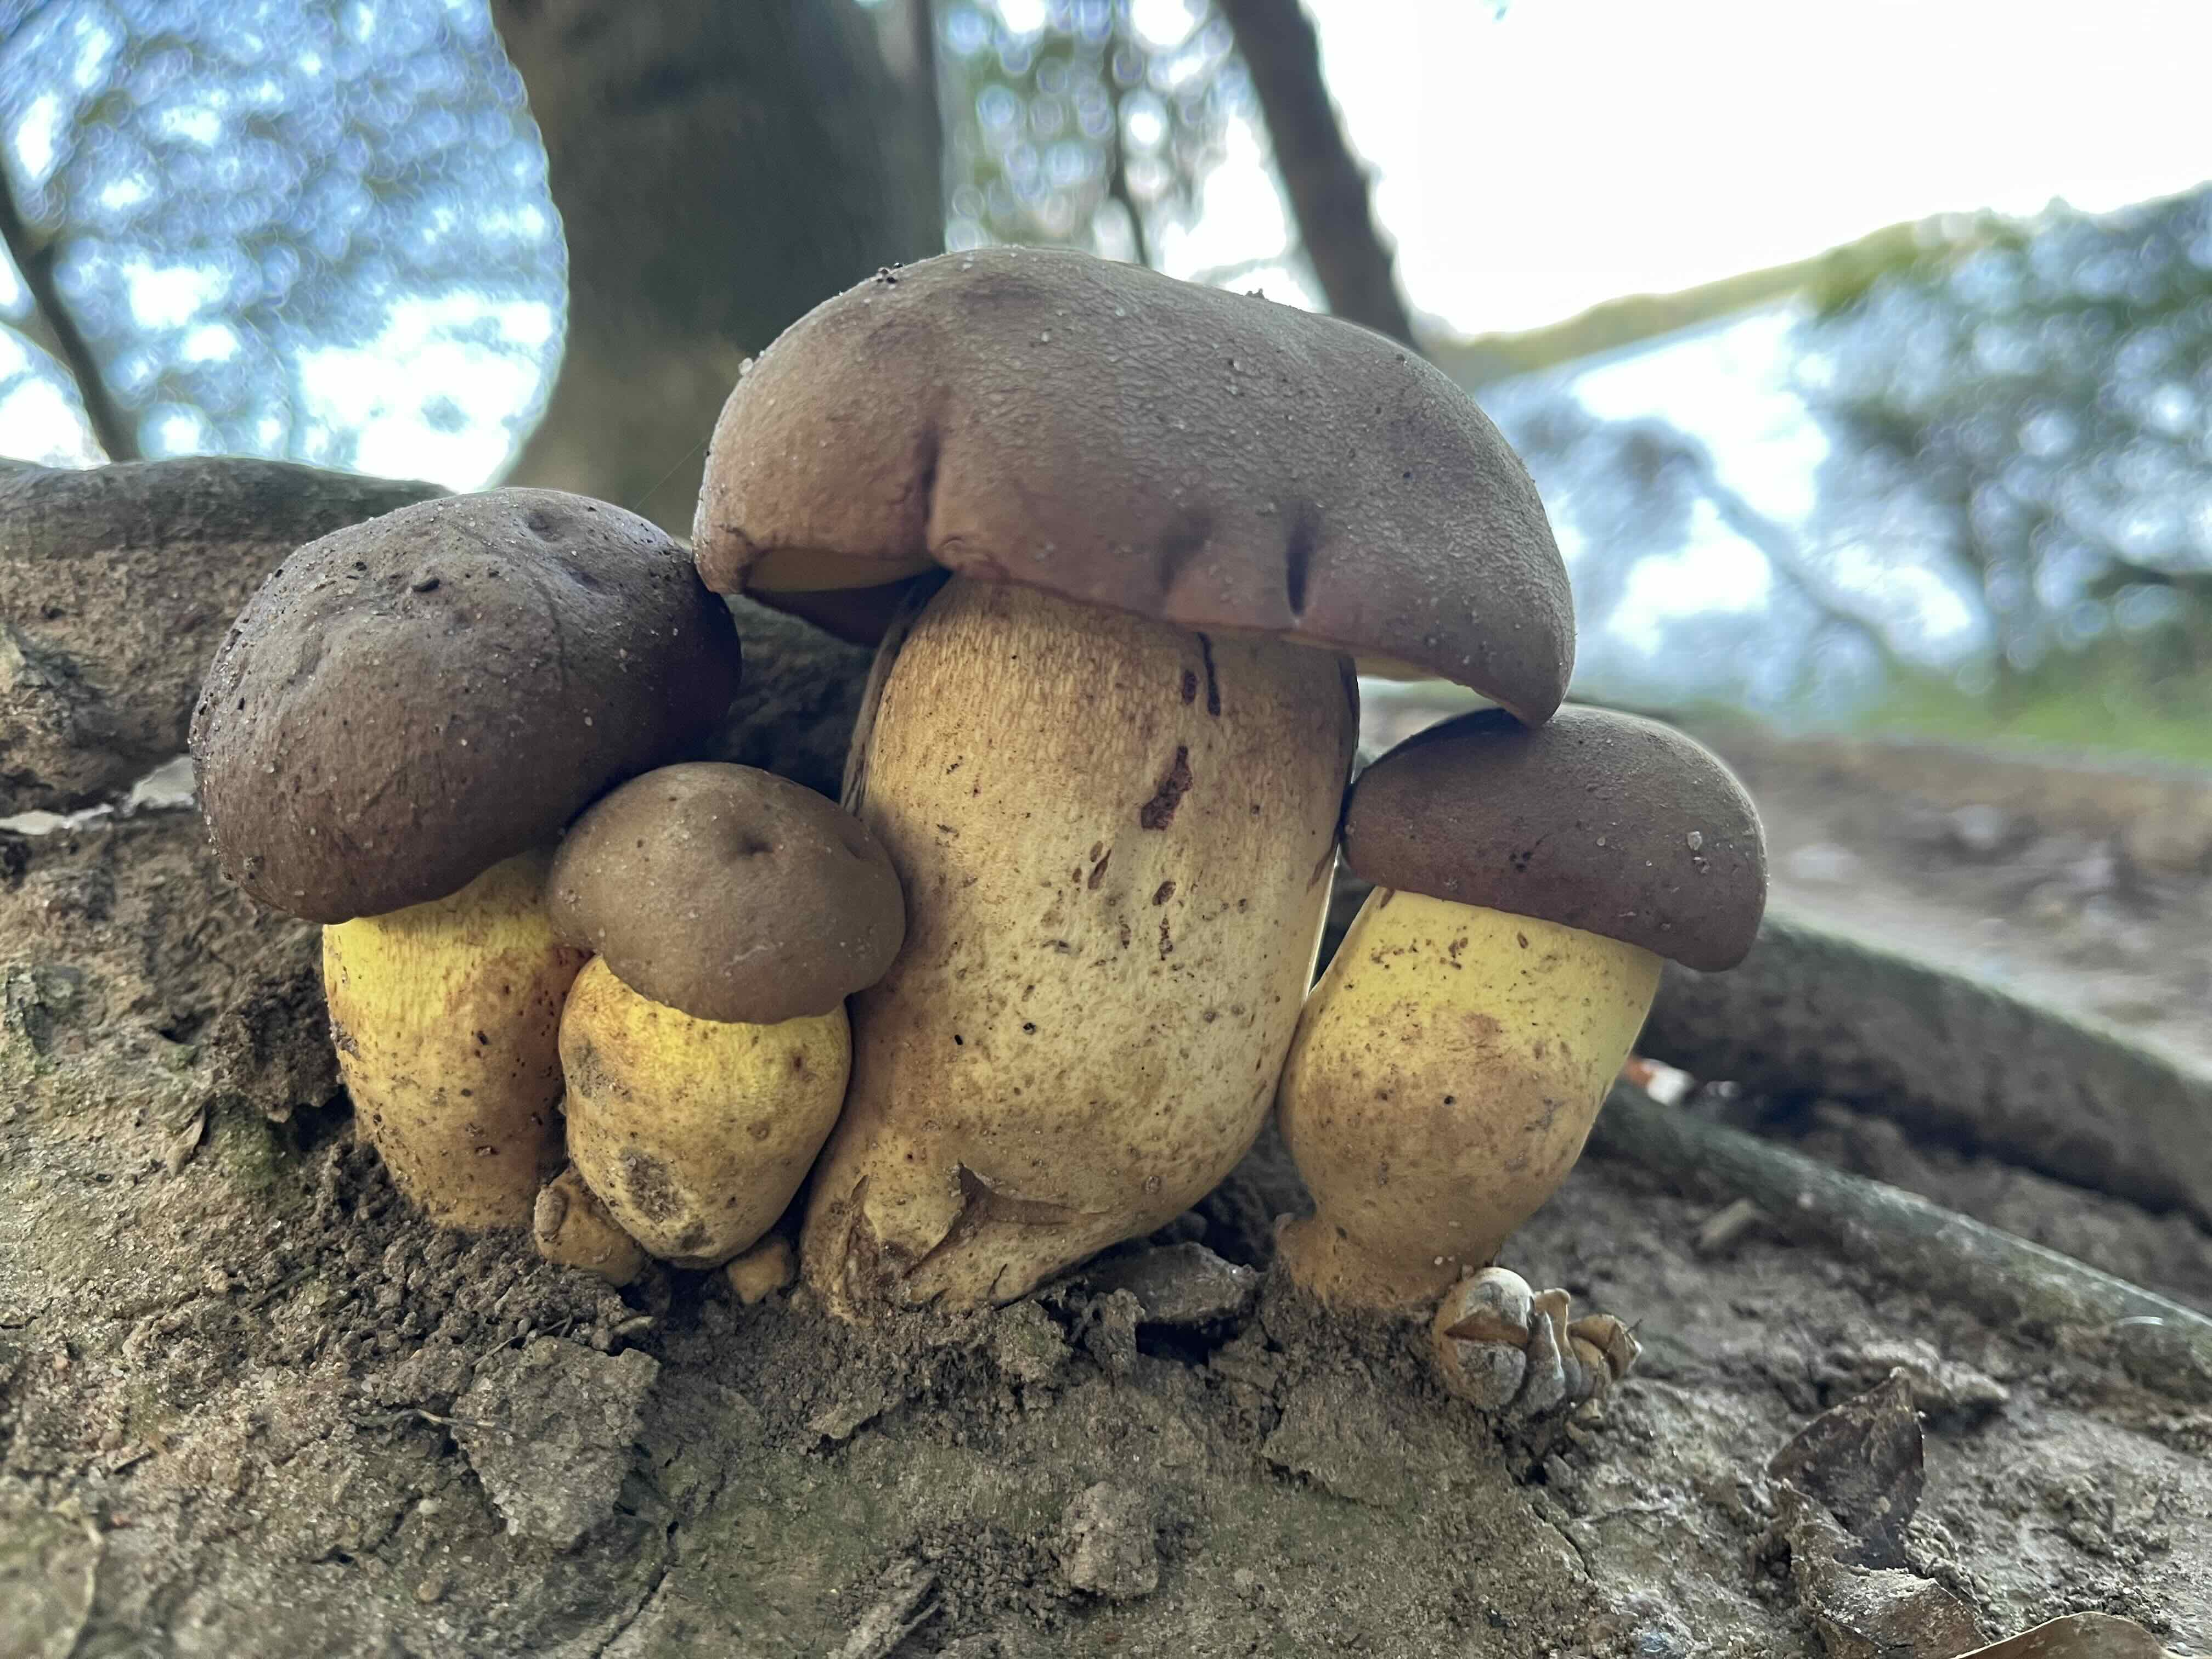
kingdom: Fungi
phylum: Basidiomycota
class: Agaricomycetes
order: Boletales
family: Boletaceae
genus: Butyriboletus
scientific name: Butyriboletus appendiculatus
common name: tenstokket rørhat
